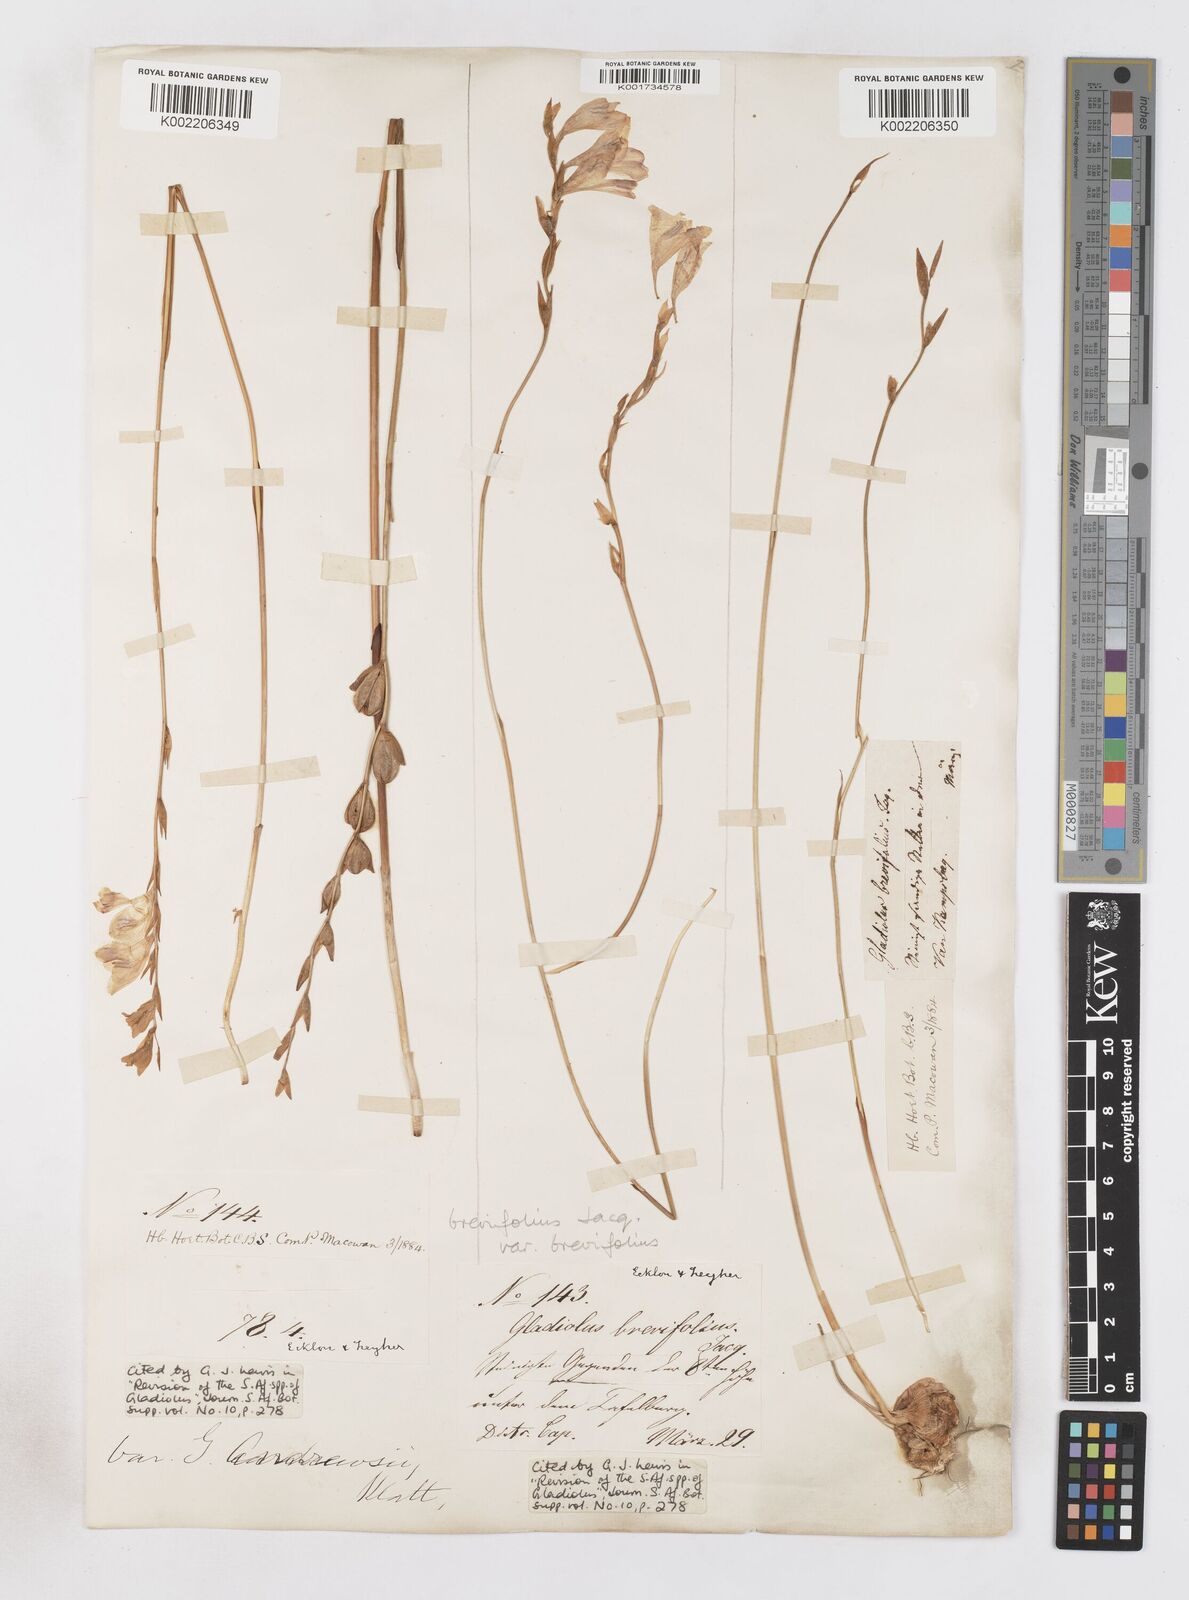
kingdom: Plantae
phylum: Tracheophyta
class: Liliopsida
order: Asparagales
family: Iridaceae
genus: Gladiolus
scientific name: Gladiolus brevifolius
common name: March pypie
